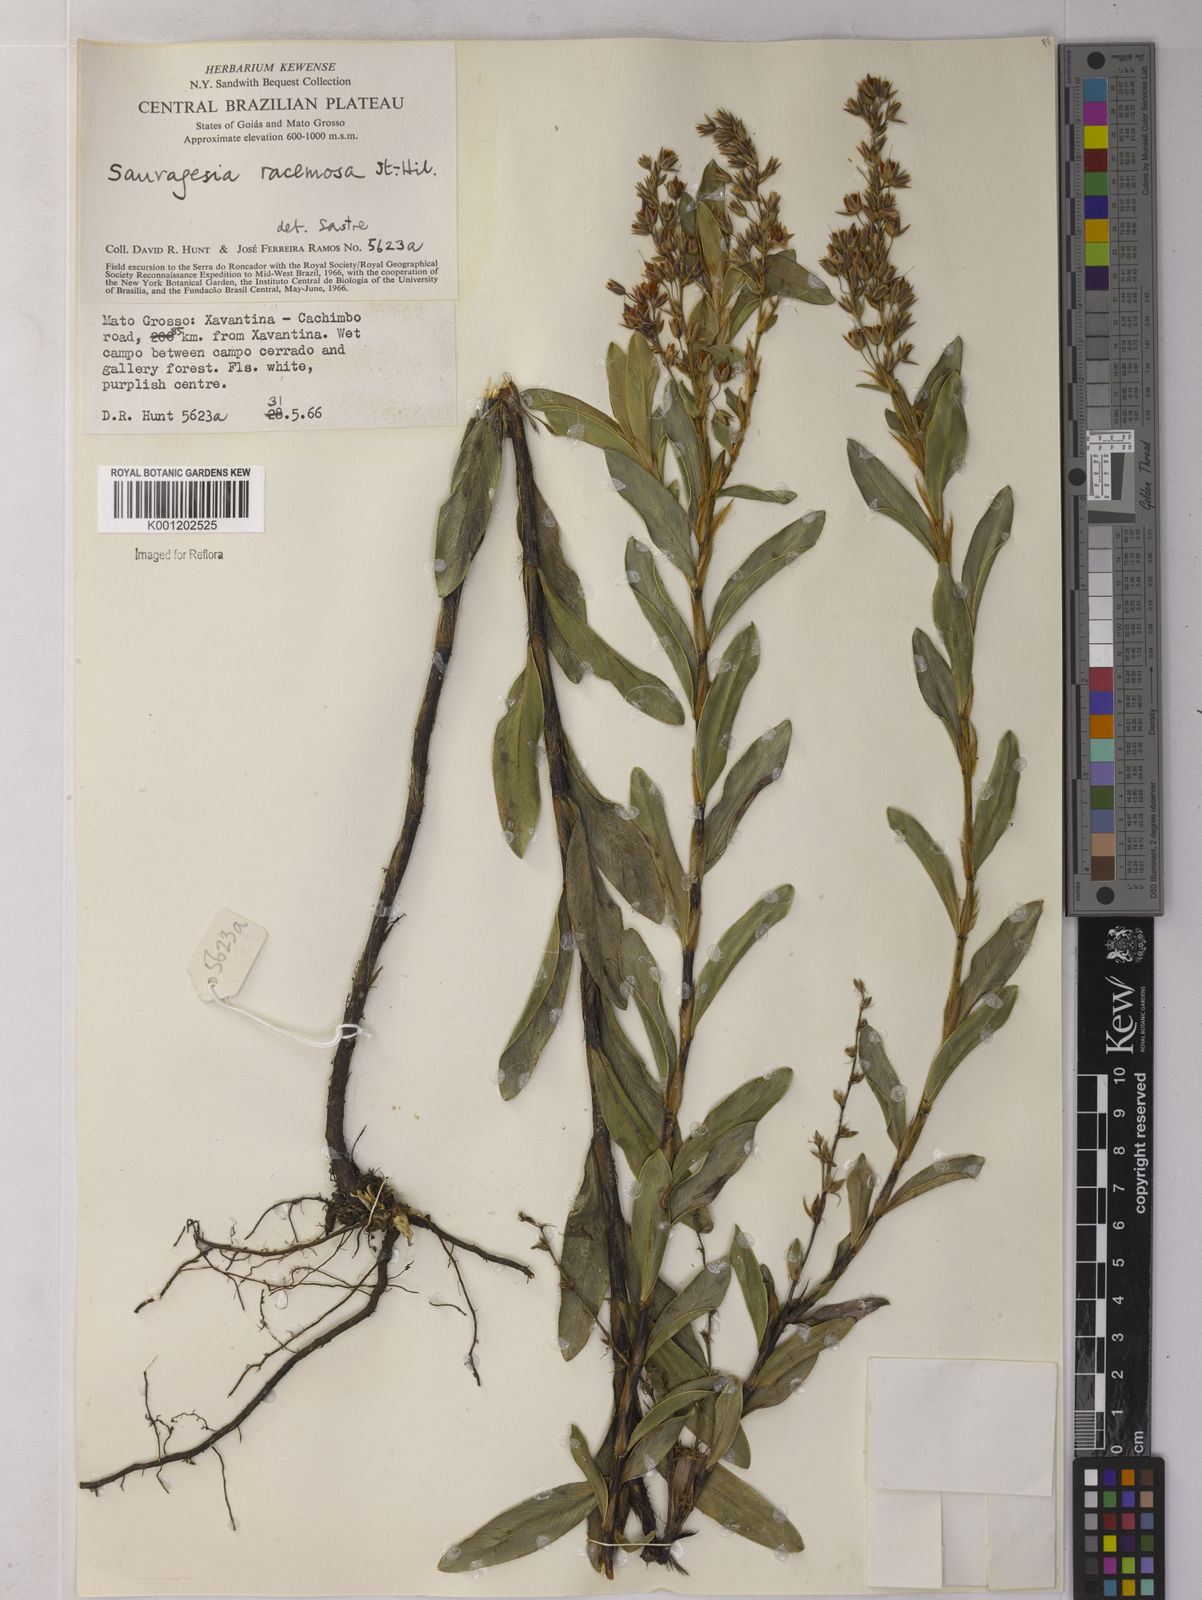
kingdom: Plantae
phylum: Tracheophyta
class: Magnoliopsida
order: Malpighiales
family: Ochnaceae
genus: Sauvagesia
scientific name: Sauvagesia racemosa
